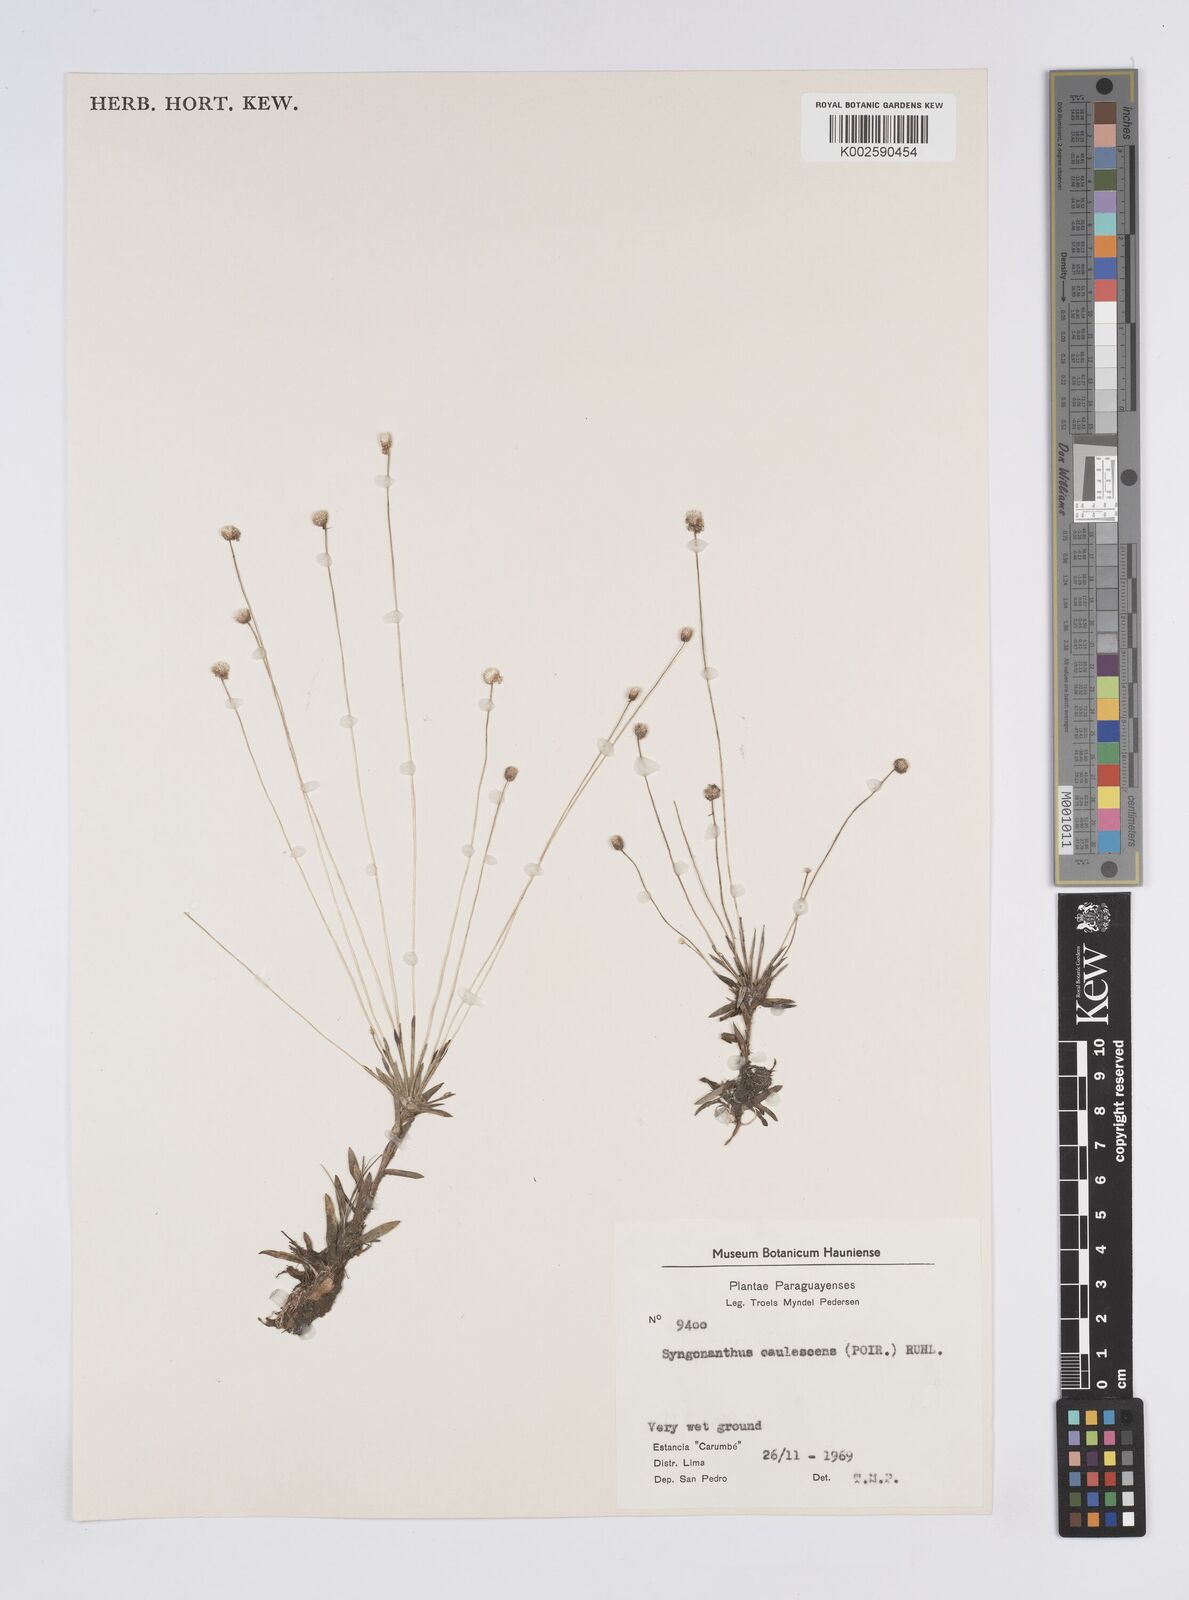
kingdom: Plantae
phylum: Tracheophyta
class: Liliopsida
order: Poales
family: Eriocaulaceae
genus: Syngonanthus
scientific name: Syngonanthus caulescens
